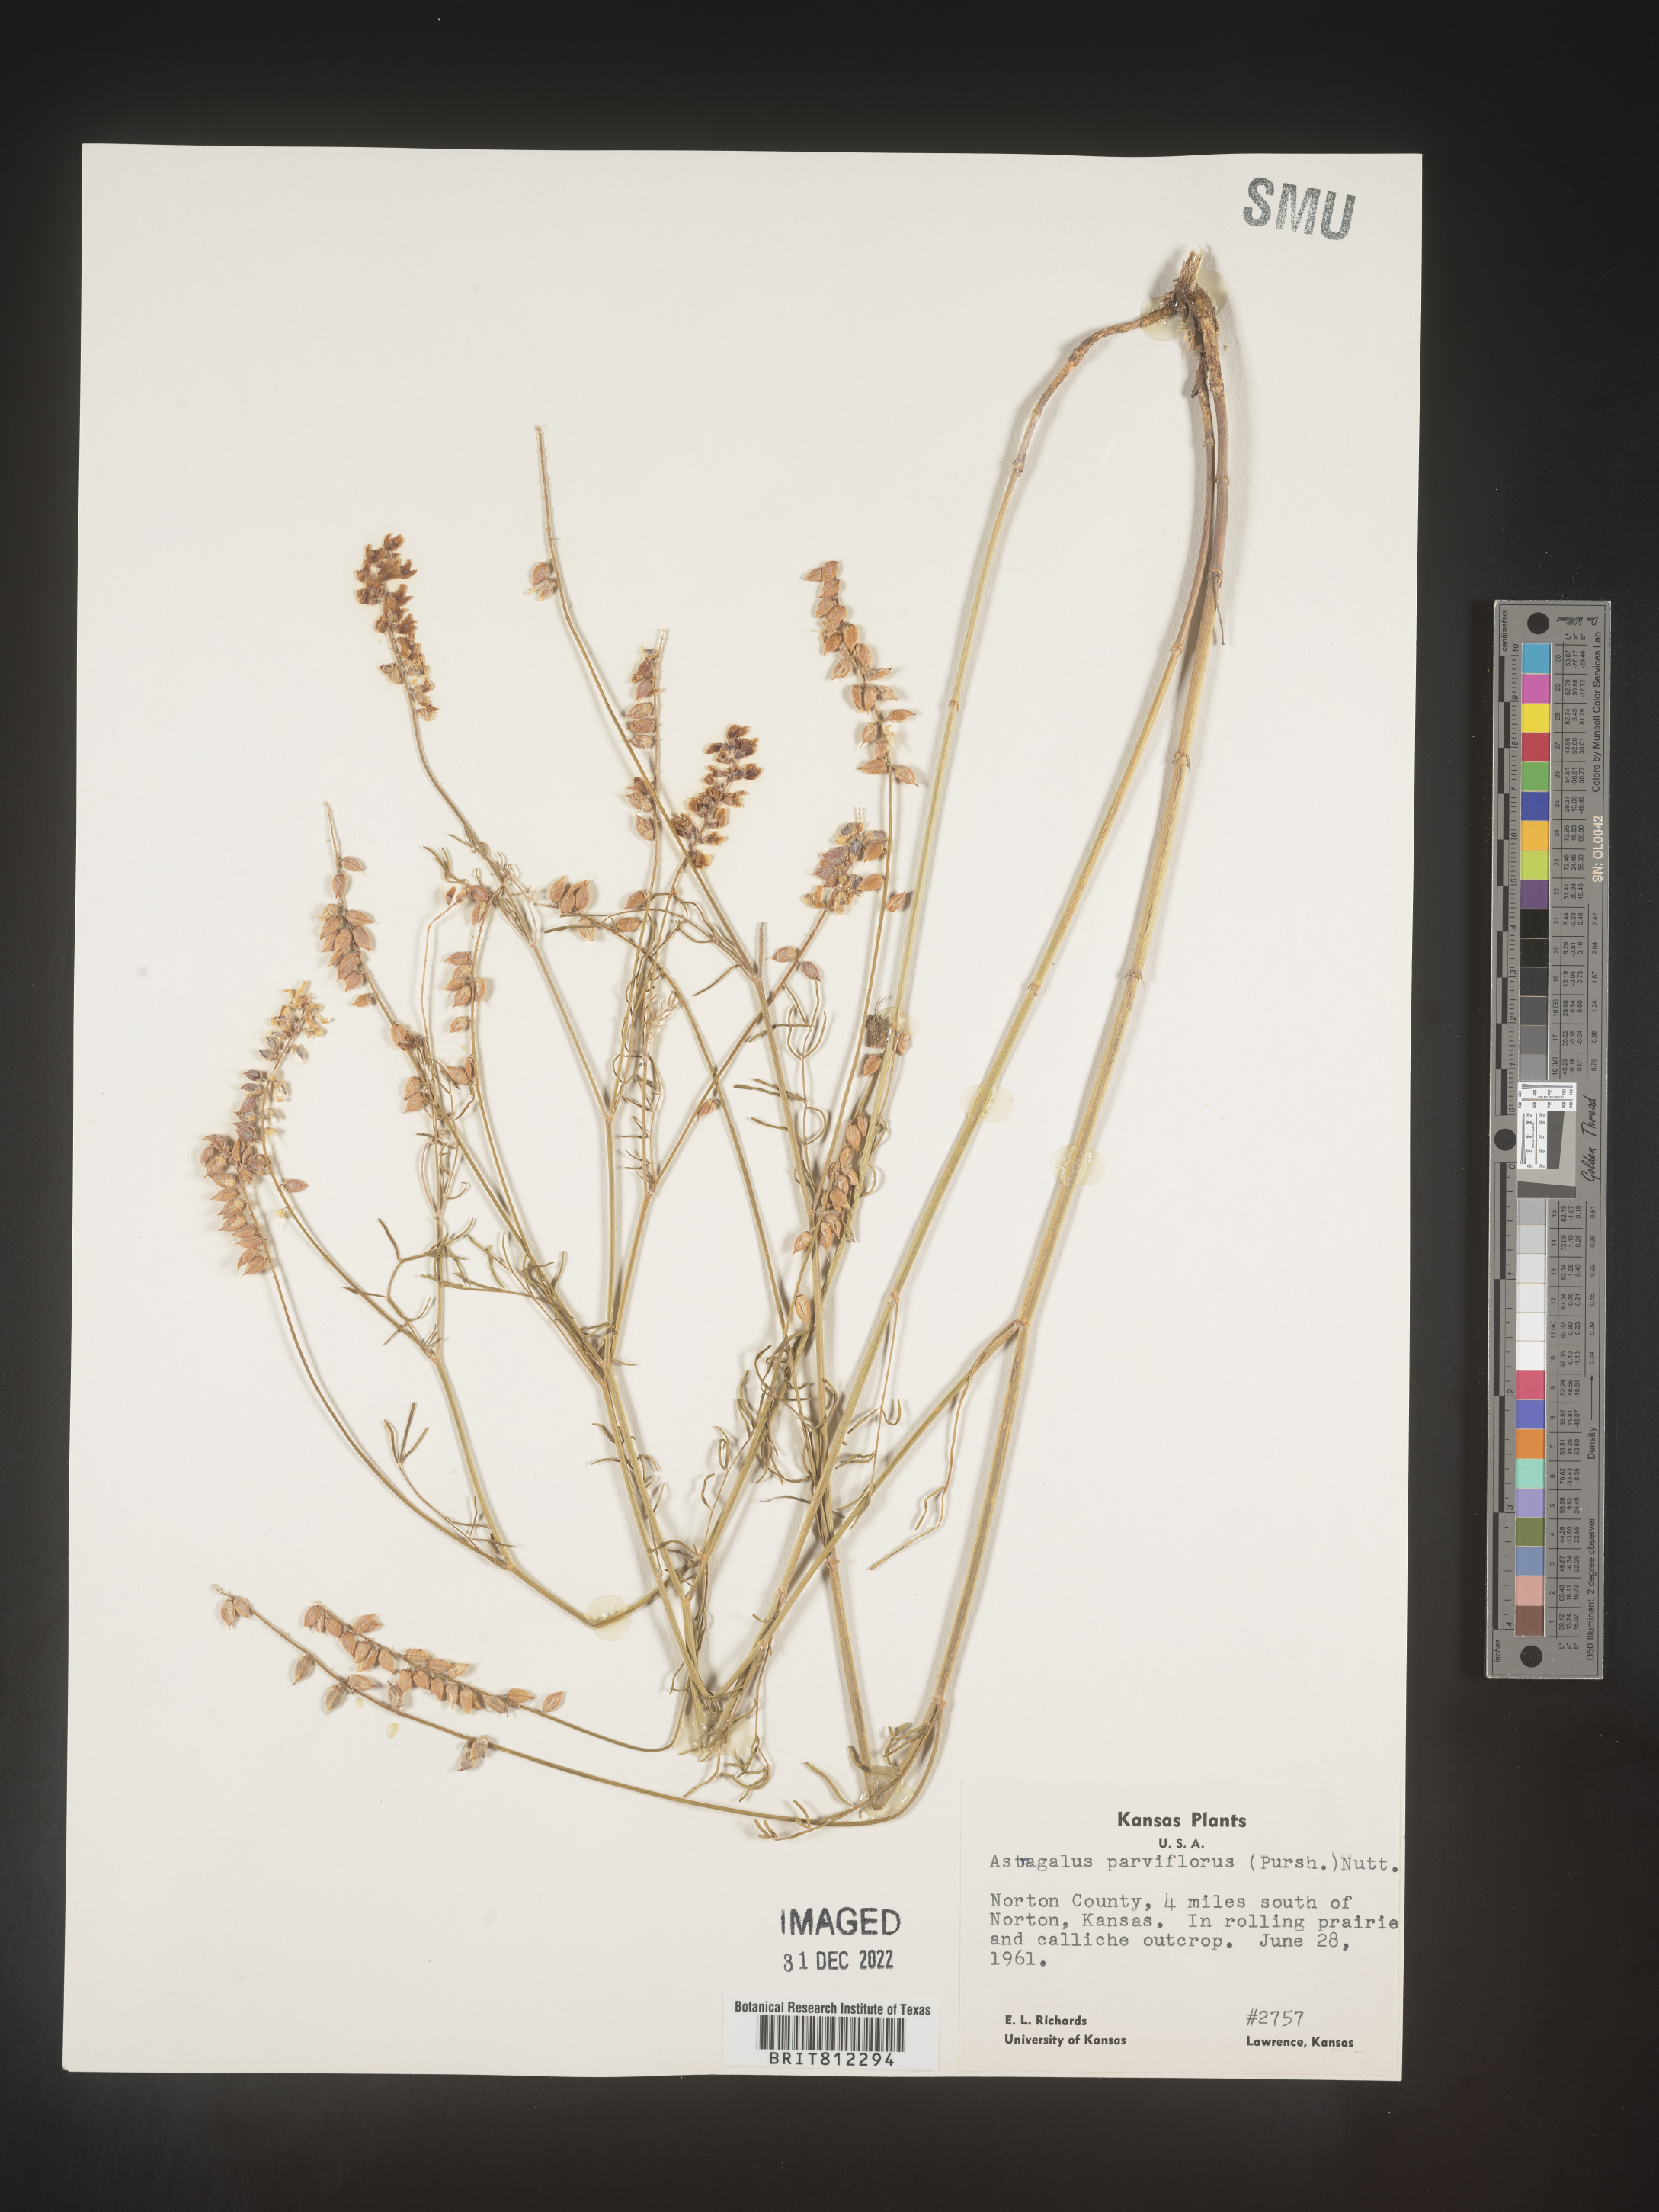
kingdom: Plantae
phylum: Tracheophyta
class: Magnoliopsida
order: Fabales
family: Fabaceae
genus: Astragalus
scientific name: Astragalus
